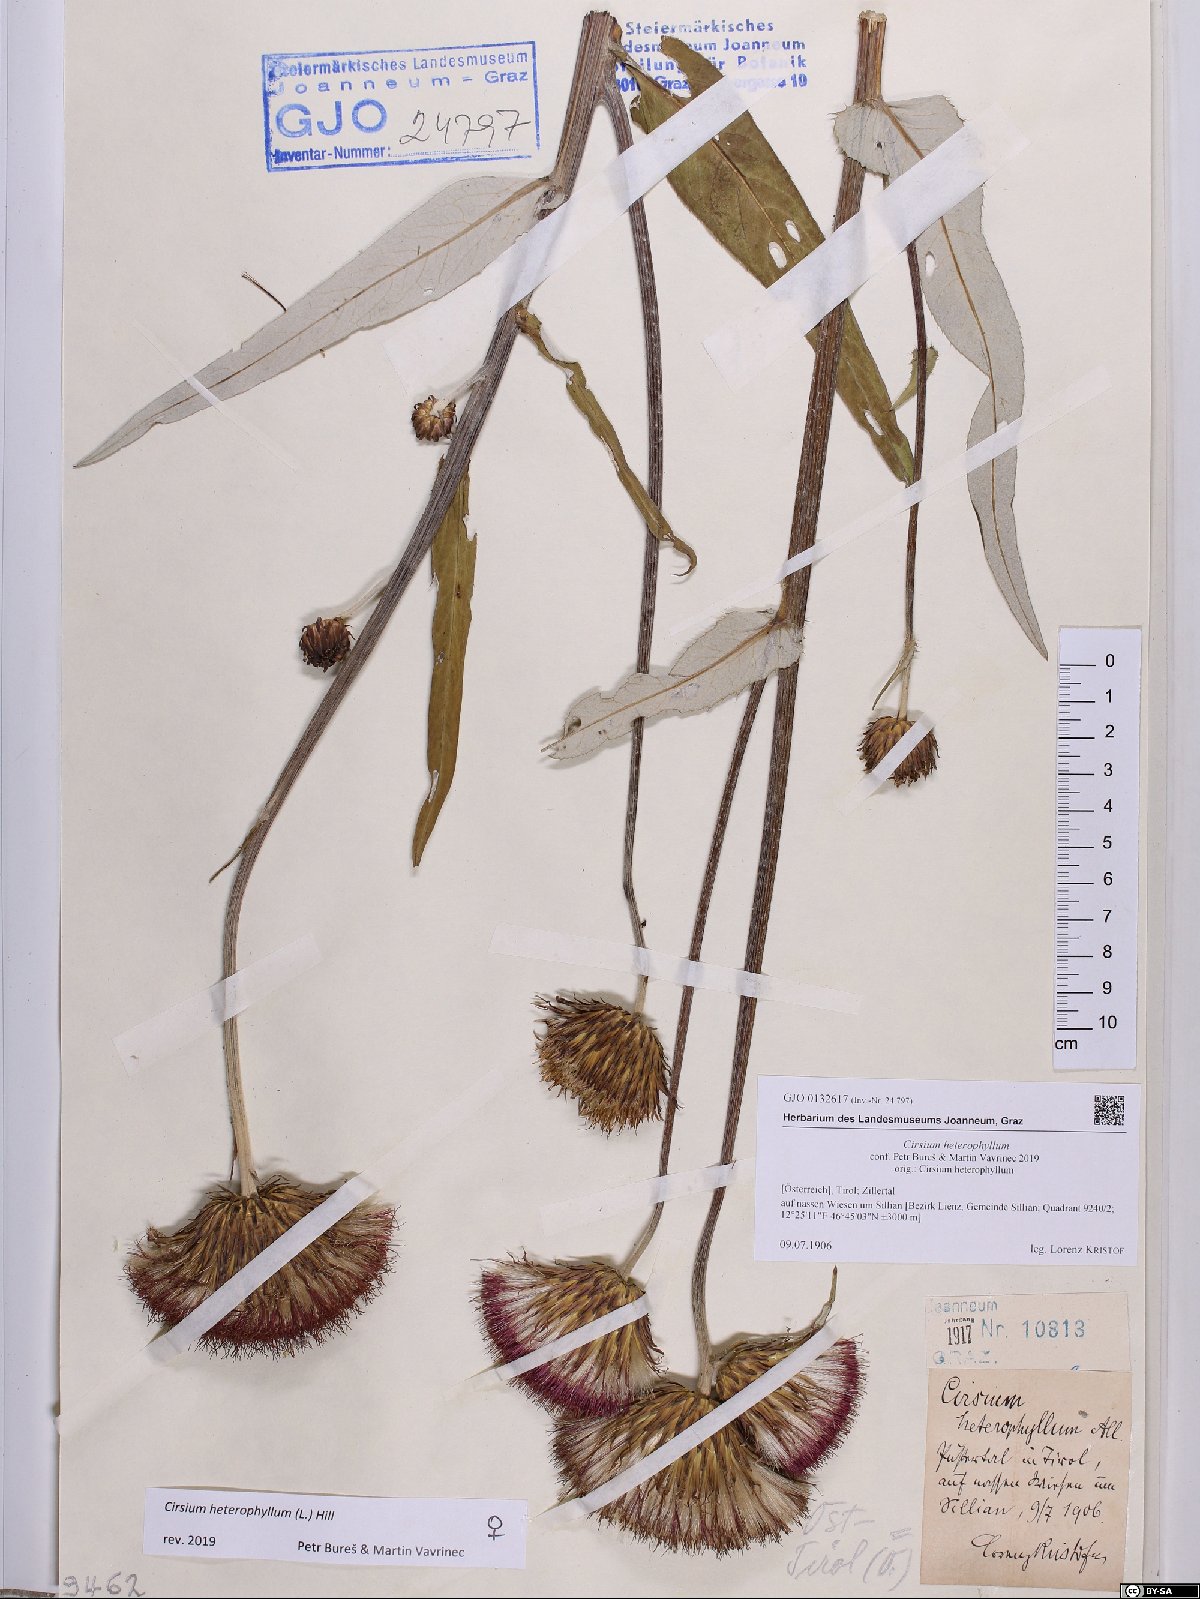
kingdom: Plantae
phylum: Tracheophyta
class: Magnoliopsida
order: Asterales
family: Asteraceae
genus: Cirsium
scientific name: Cirsium heterophyllum
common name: Melancholy thistle
